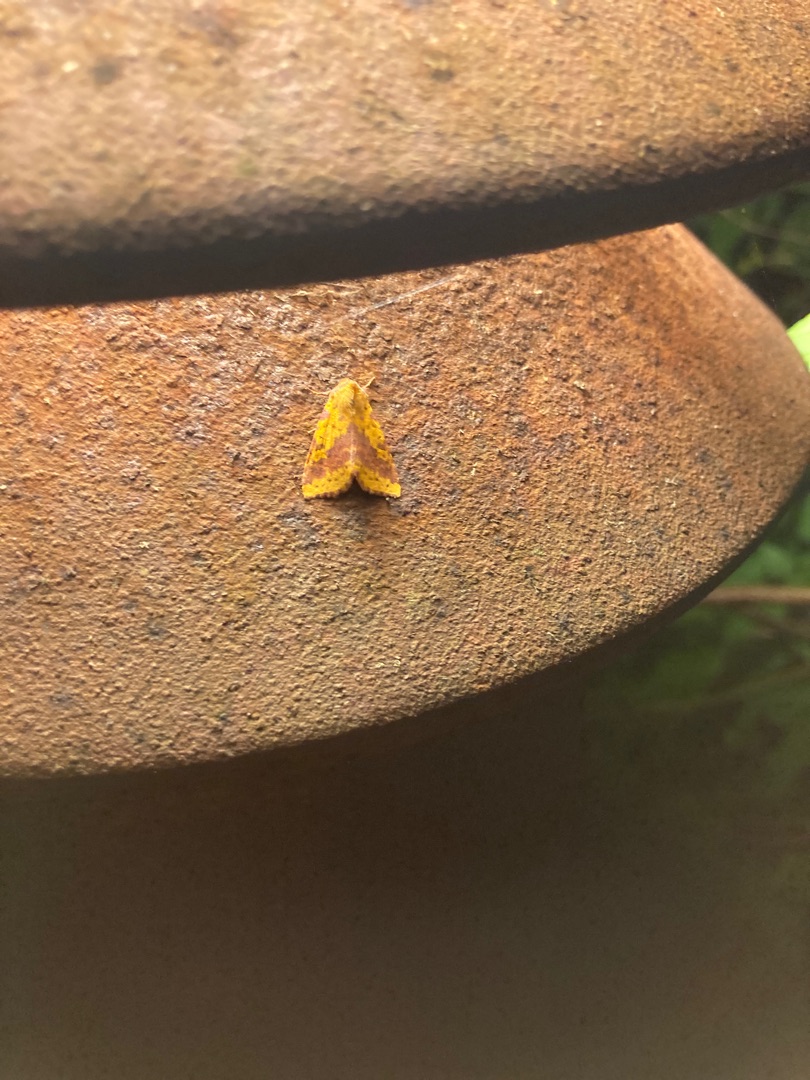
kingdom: Animalia
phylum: Arthropoda
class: Insecta
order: Lepidoptera
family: Noctuidae
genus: Xanthia
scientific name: Xanthia togata
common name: Toga-septemberugle
